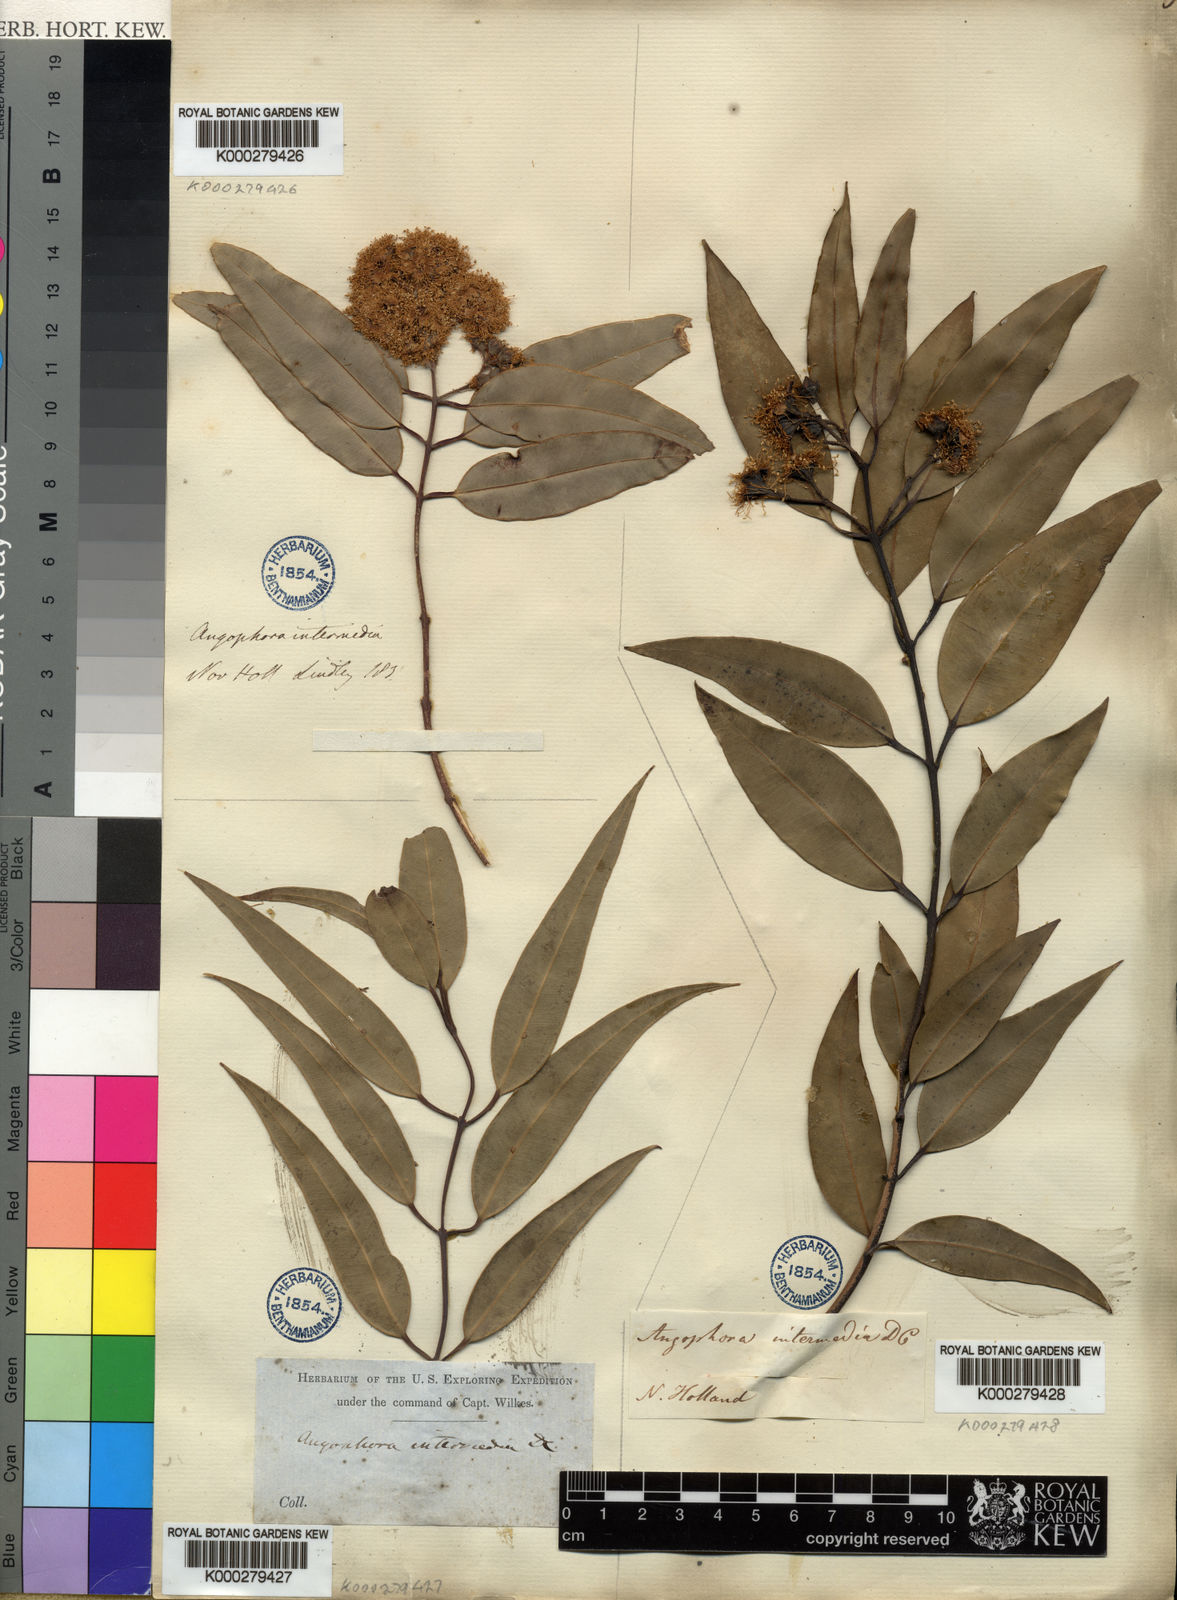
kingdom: Plantae
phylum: Tracheophyta
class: Magnoliopsida
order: Myrtales
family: Myrtaceae
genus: Angophora
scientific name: Angophora floribunda
